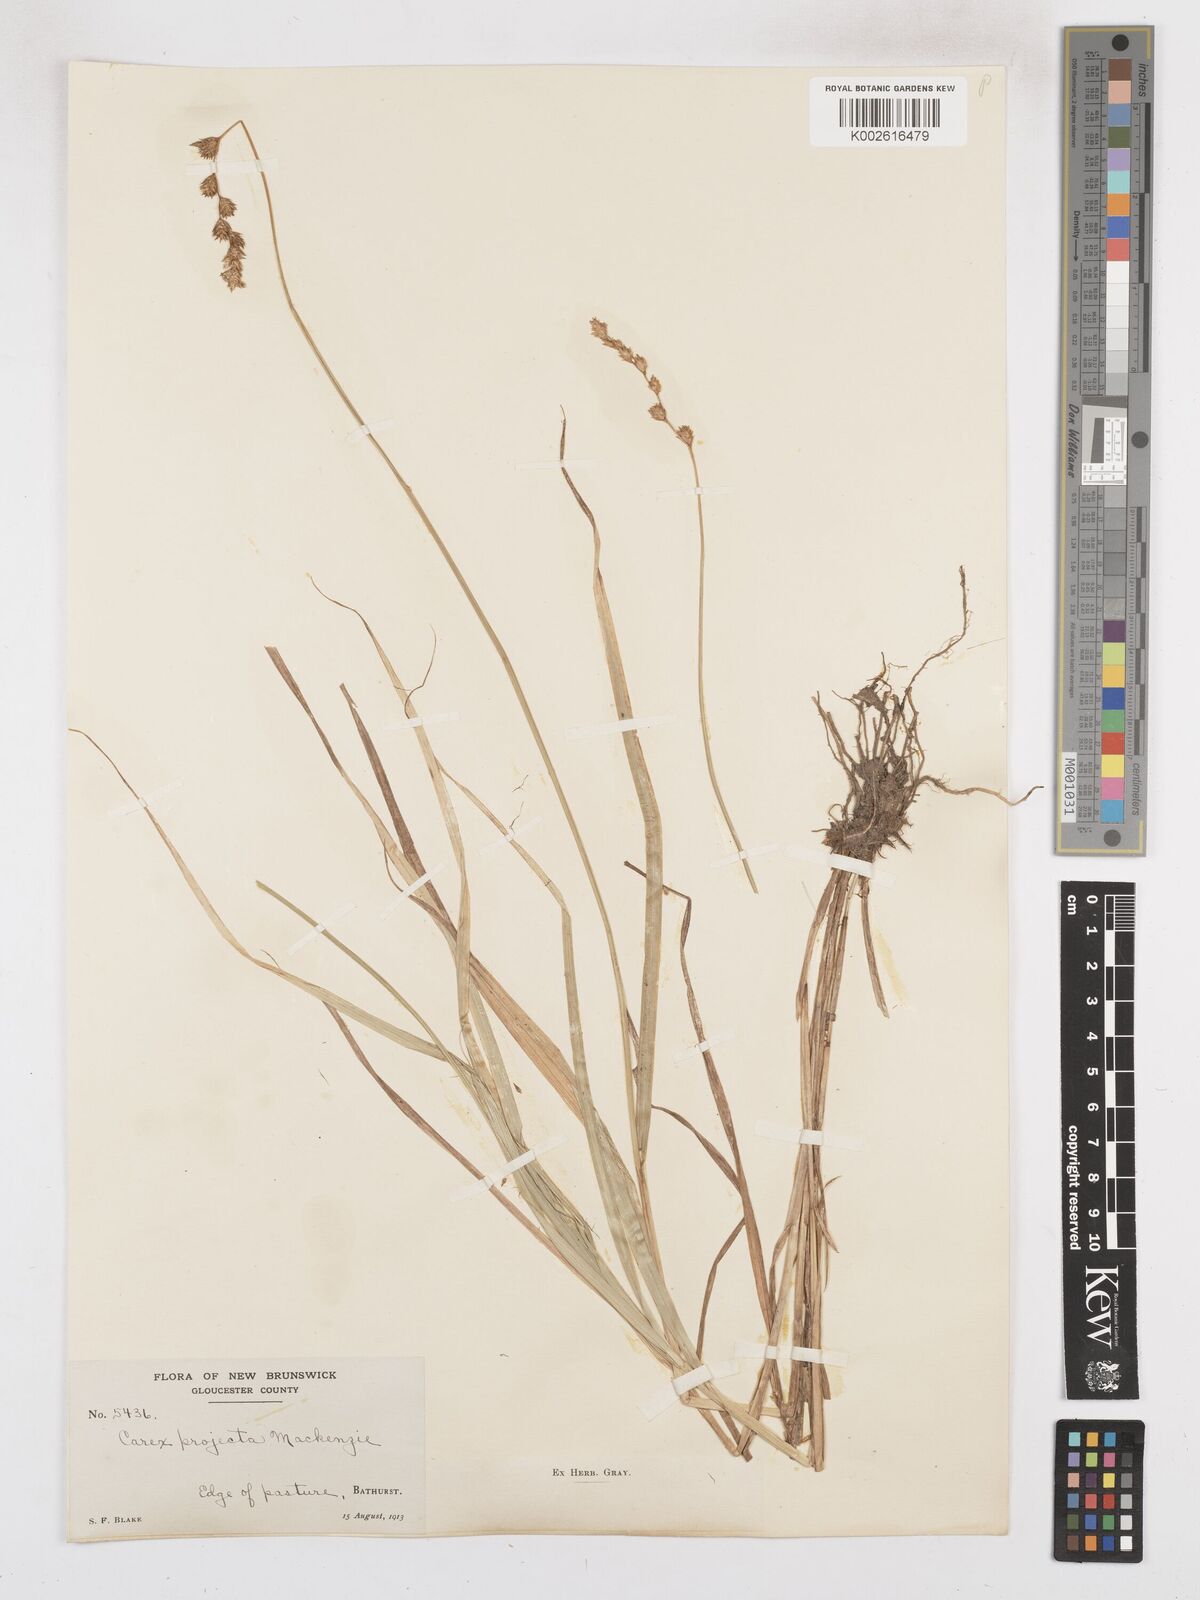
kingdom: Plantae
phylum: Tracheophyta
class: Liliopsida
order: Poales
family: Cyperaceae
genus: Carex
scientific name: Carex projecta
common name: Loose-headed oval sedge
